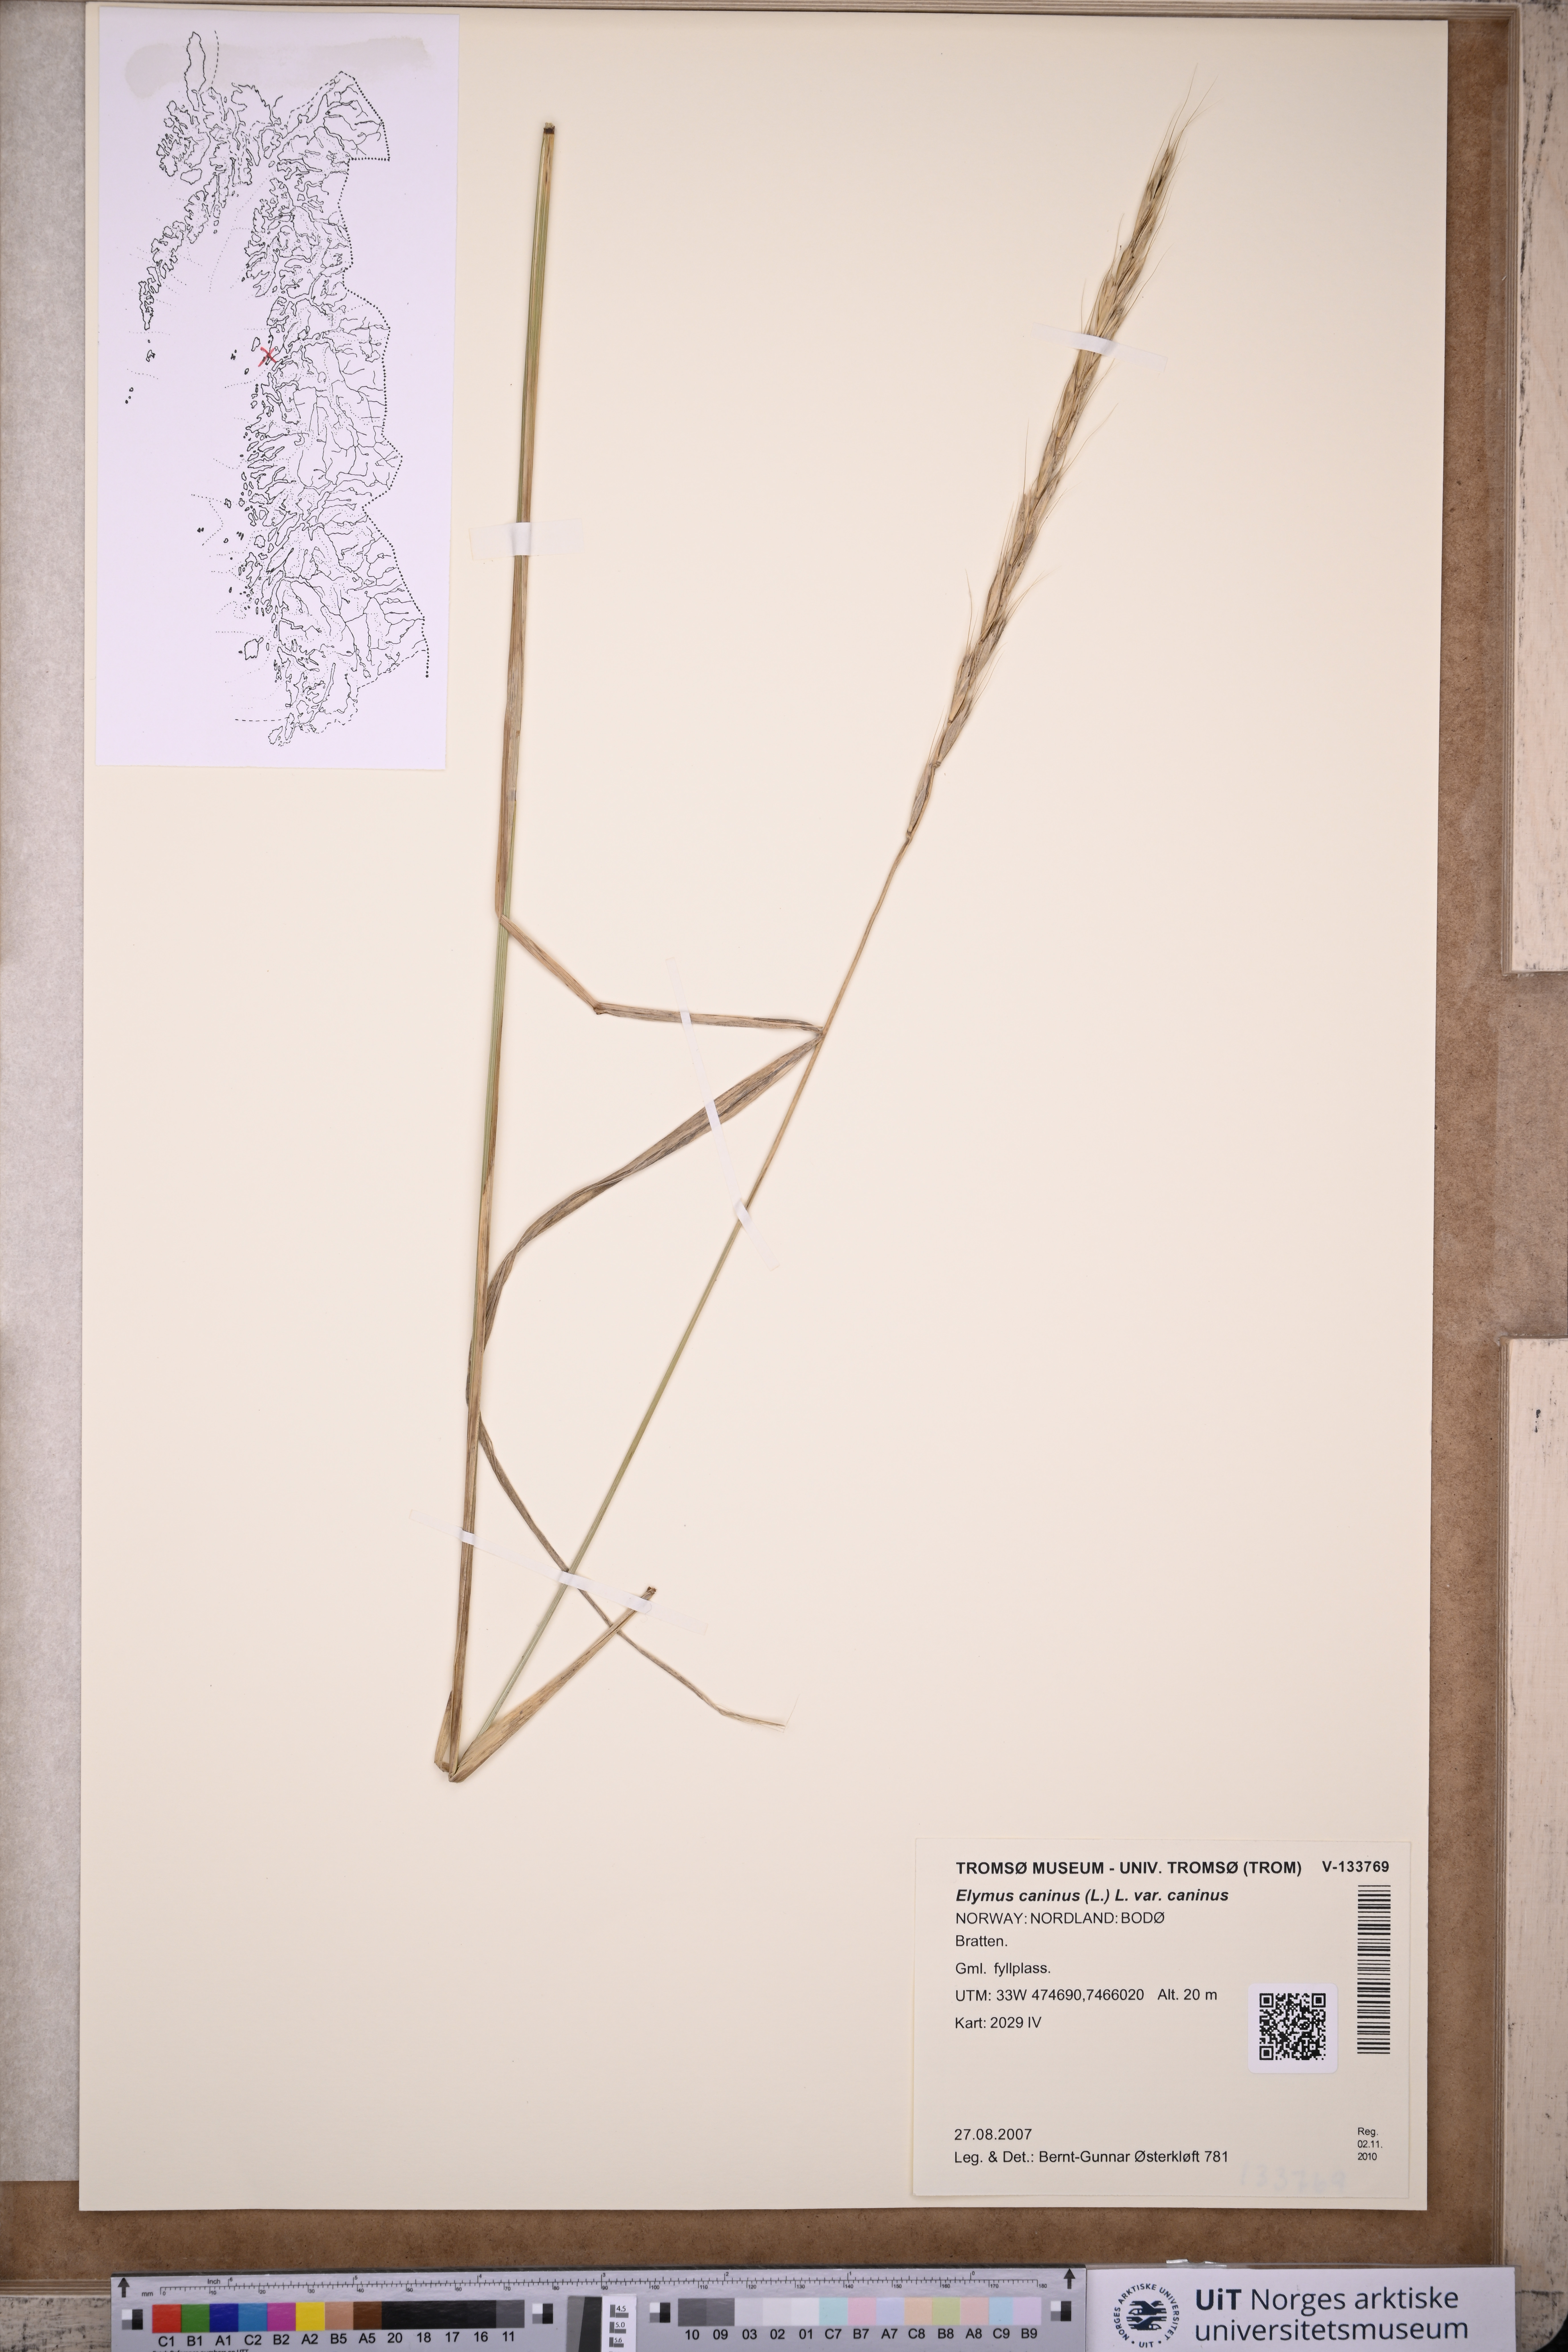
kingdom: Plantae
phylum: Tracheophyta
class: Liliopsida
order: Poales
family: Poaceae
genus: Elymus
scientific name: Elymus caninus
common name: Bearded couch
